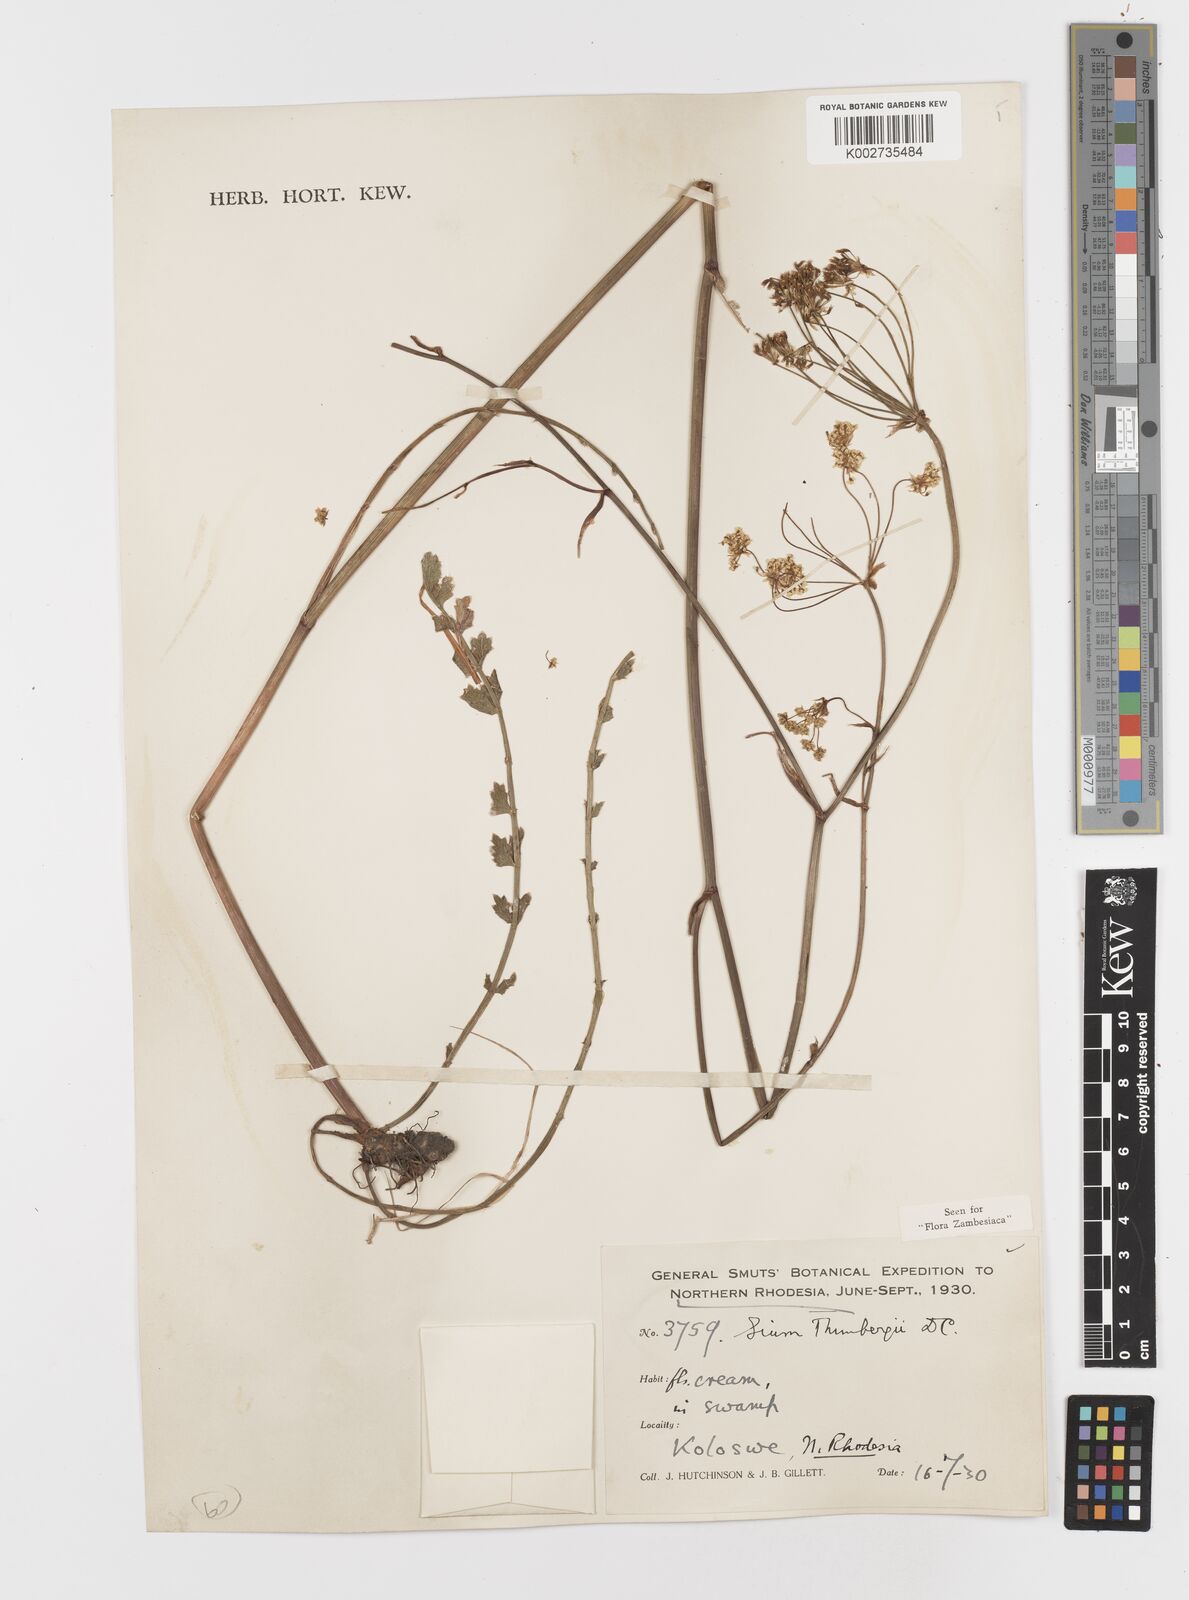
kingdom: Plantae
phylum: Tracheophyta
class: Magnoliopsida
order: Apiales
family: Apiaceae
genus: Berula
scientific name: Berula imbricata
